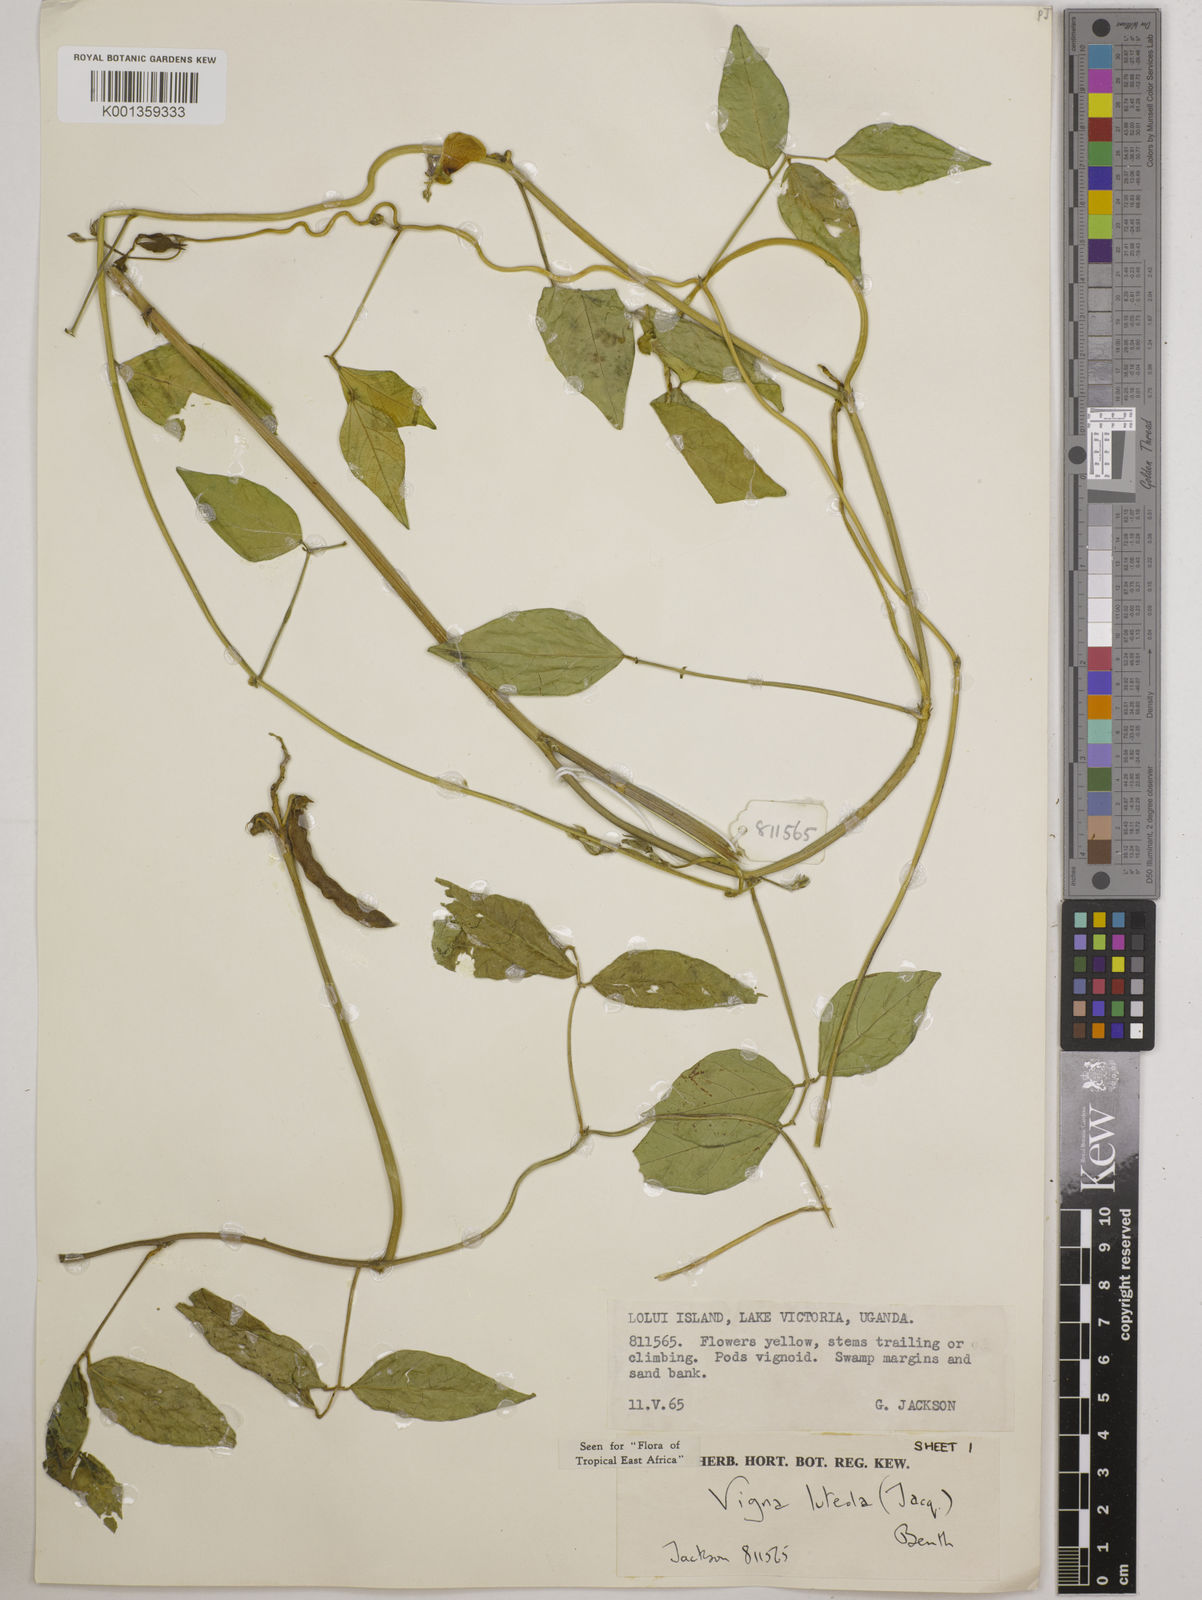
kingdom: Plantae
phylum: Tracheophyta
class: Magnoliopsida
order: Fabales
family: Fabaceae
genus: Vigna
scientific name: Vigna luteola
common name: Hairypod cowpea
